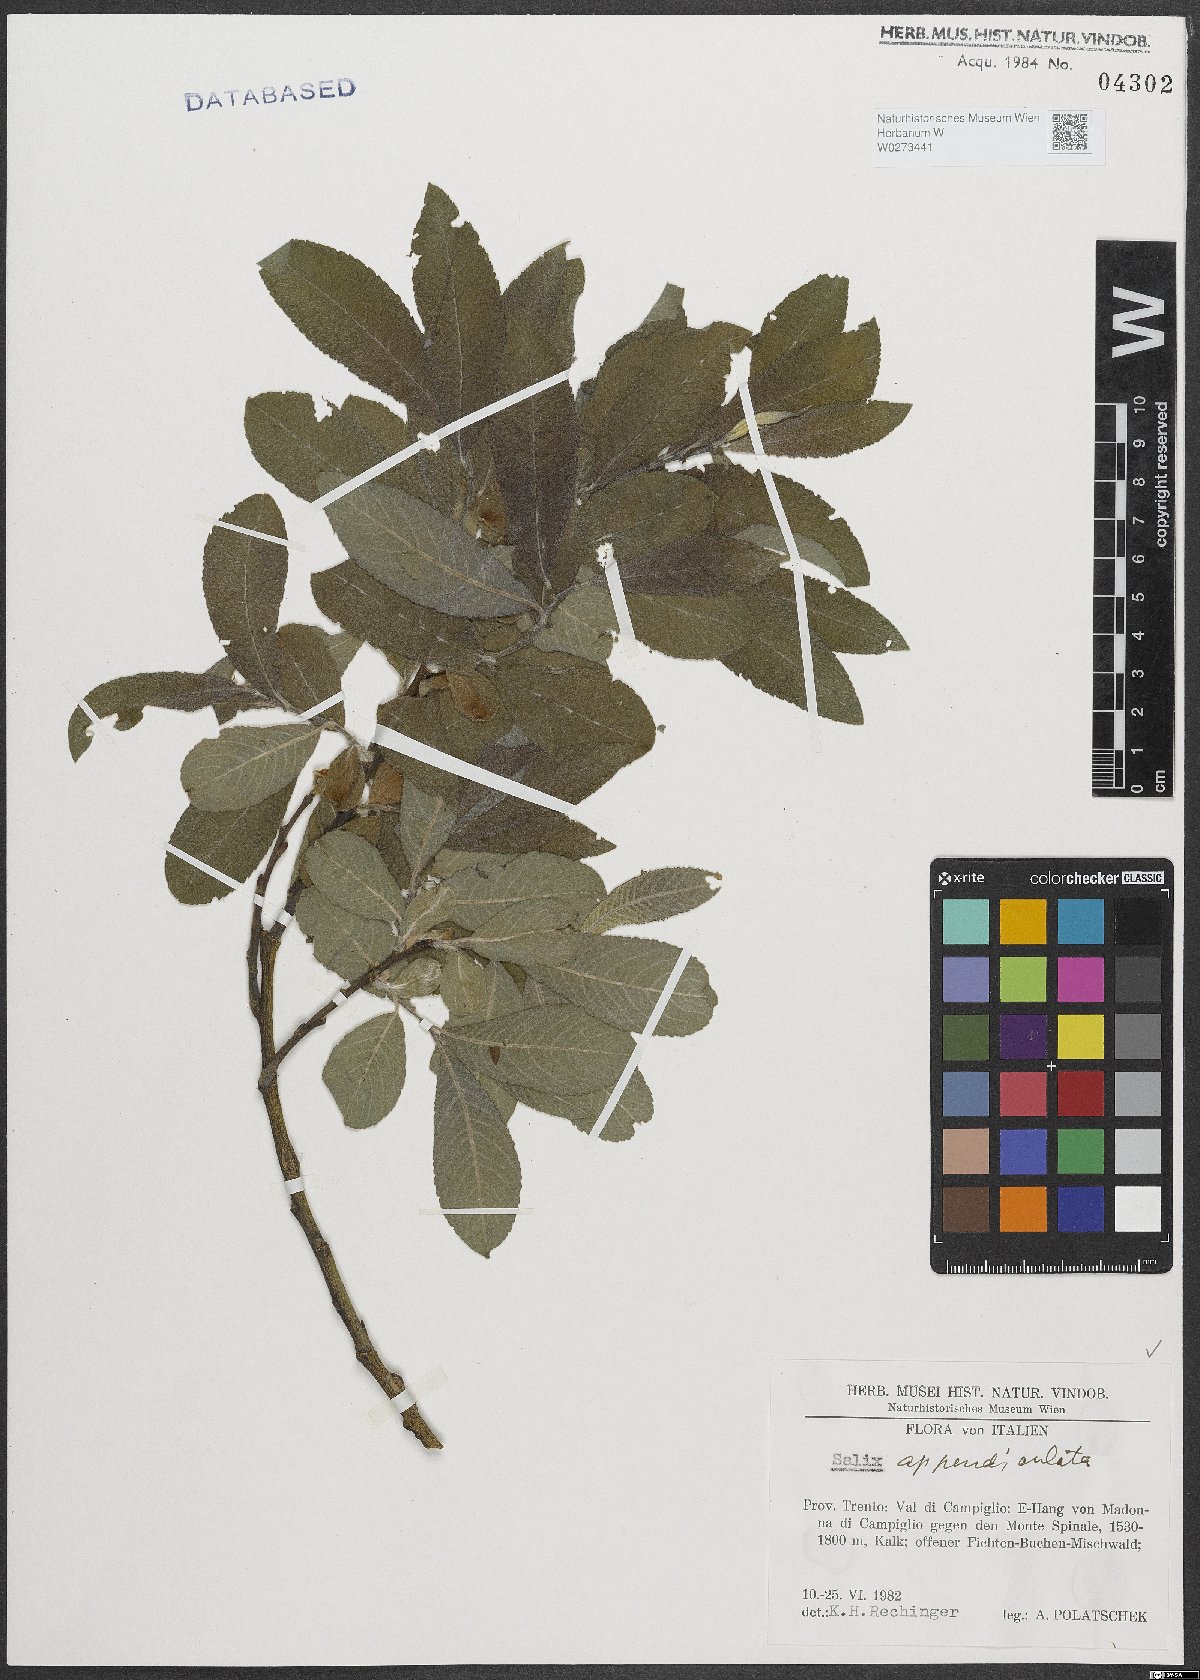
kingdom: Plantae
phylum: Tracheophyta
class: Magnoliopsida
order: Malpighiales
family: Salicaceae
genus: Salix
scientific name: Salix appendiculata
